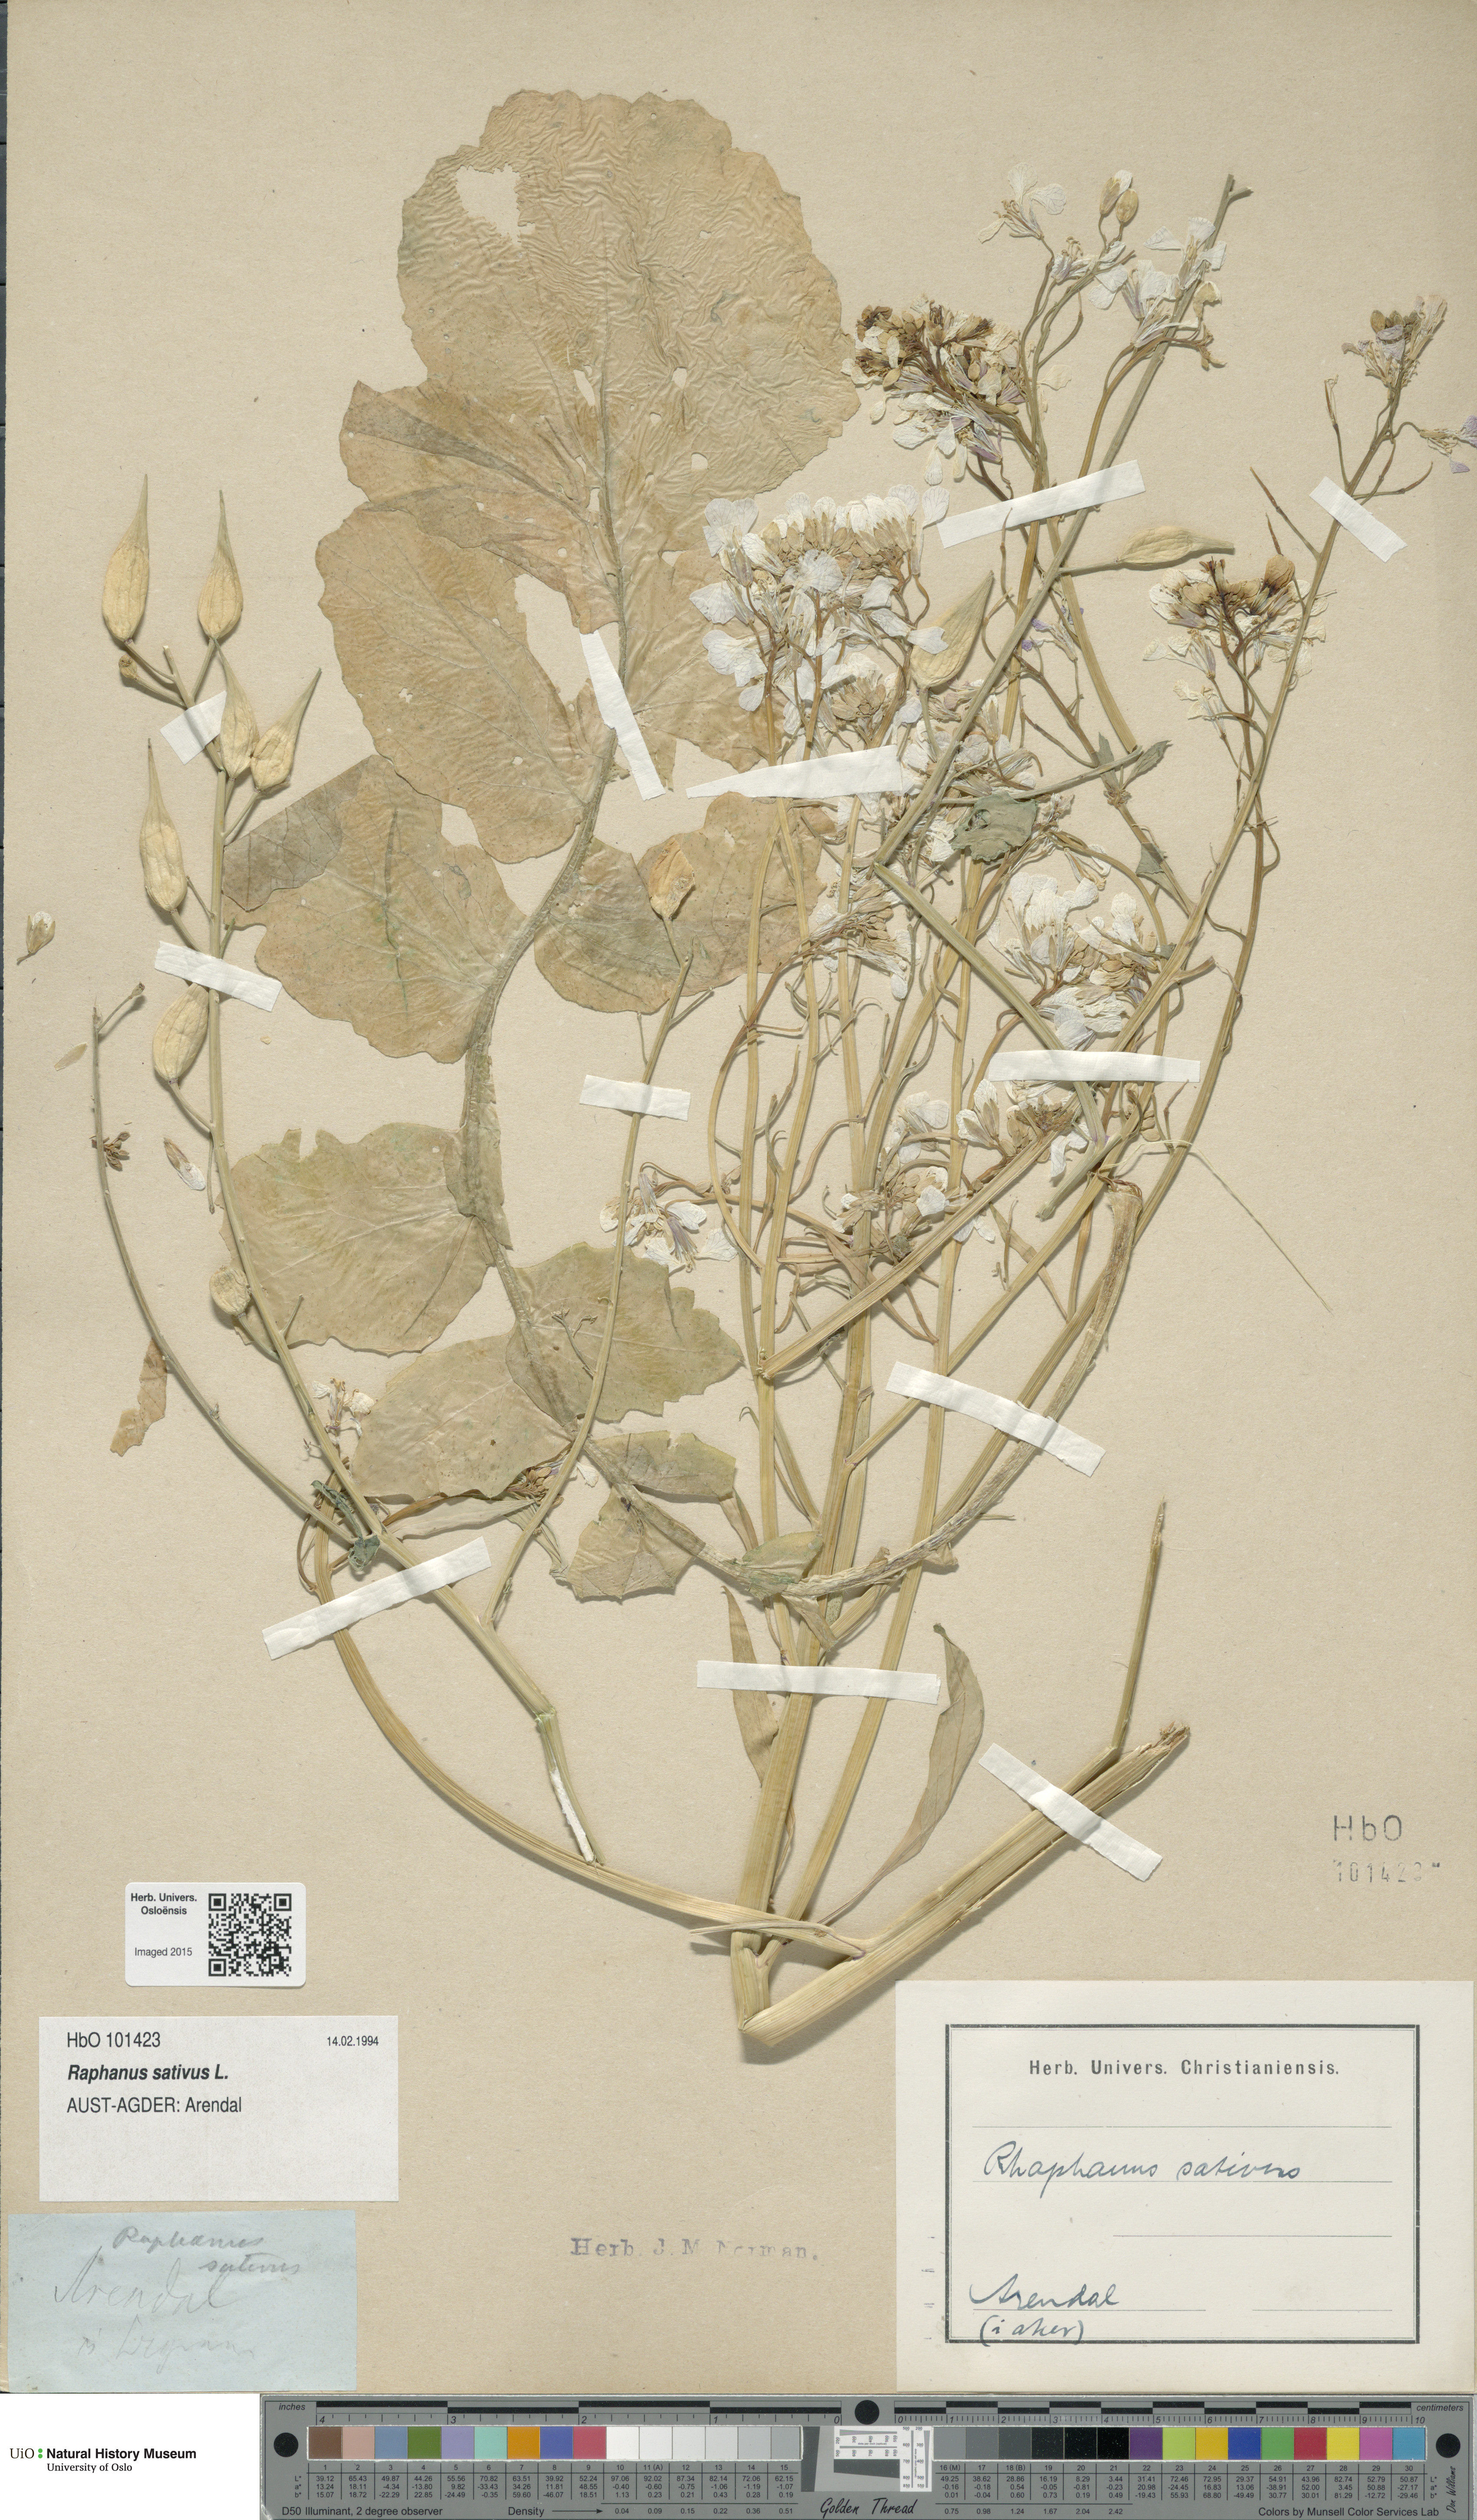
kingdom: Plantae
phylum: Tracheophyta
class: Magnoliopsida
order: Brassicales
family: Brassicaceae
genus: Raphanus
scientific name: Raphanus sativus
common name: Cultivated radish
